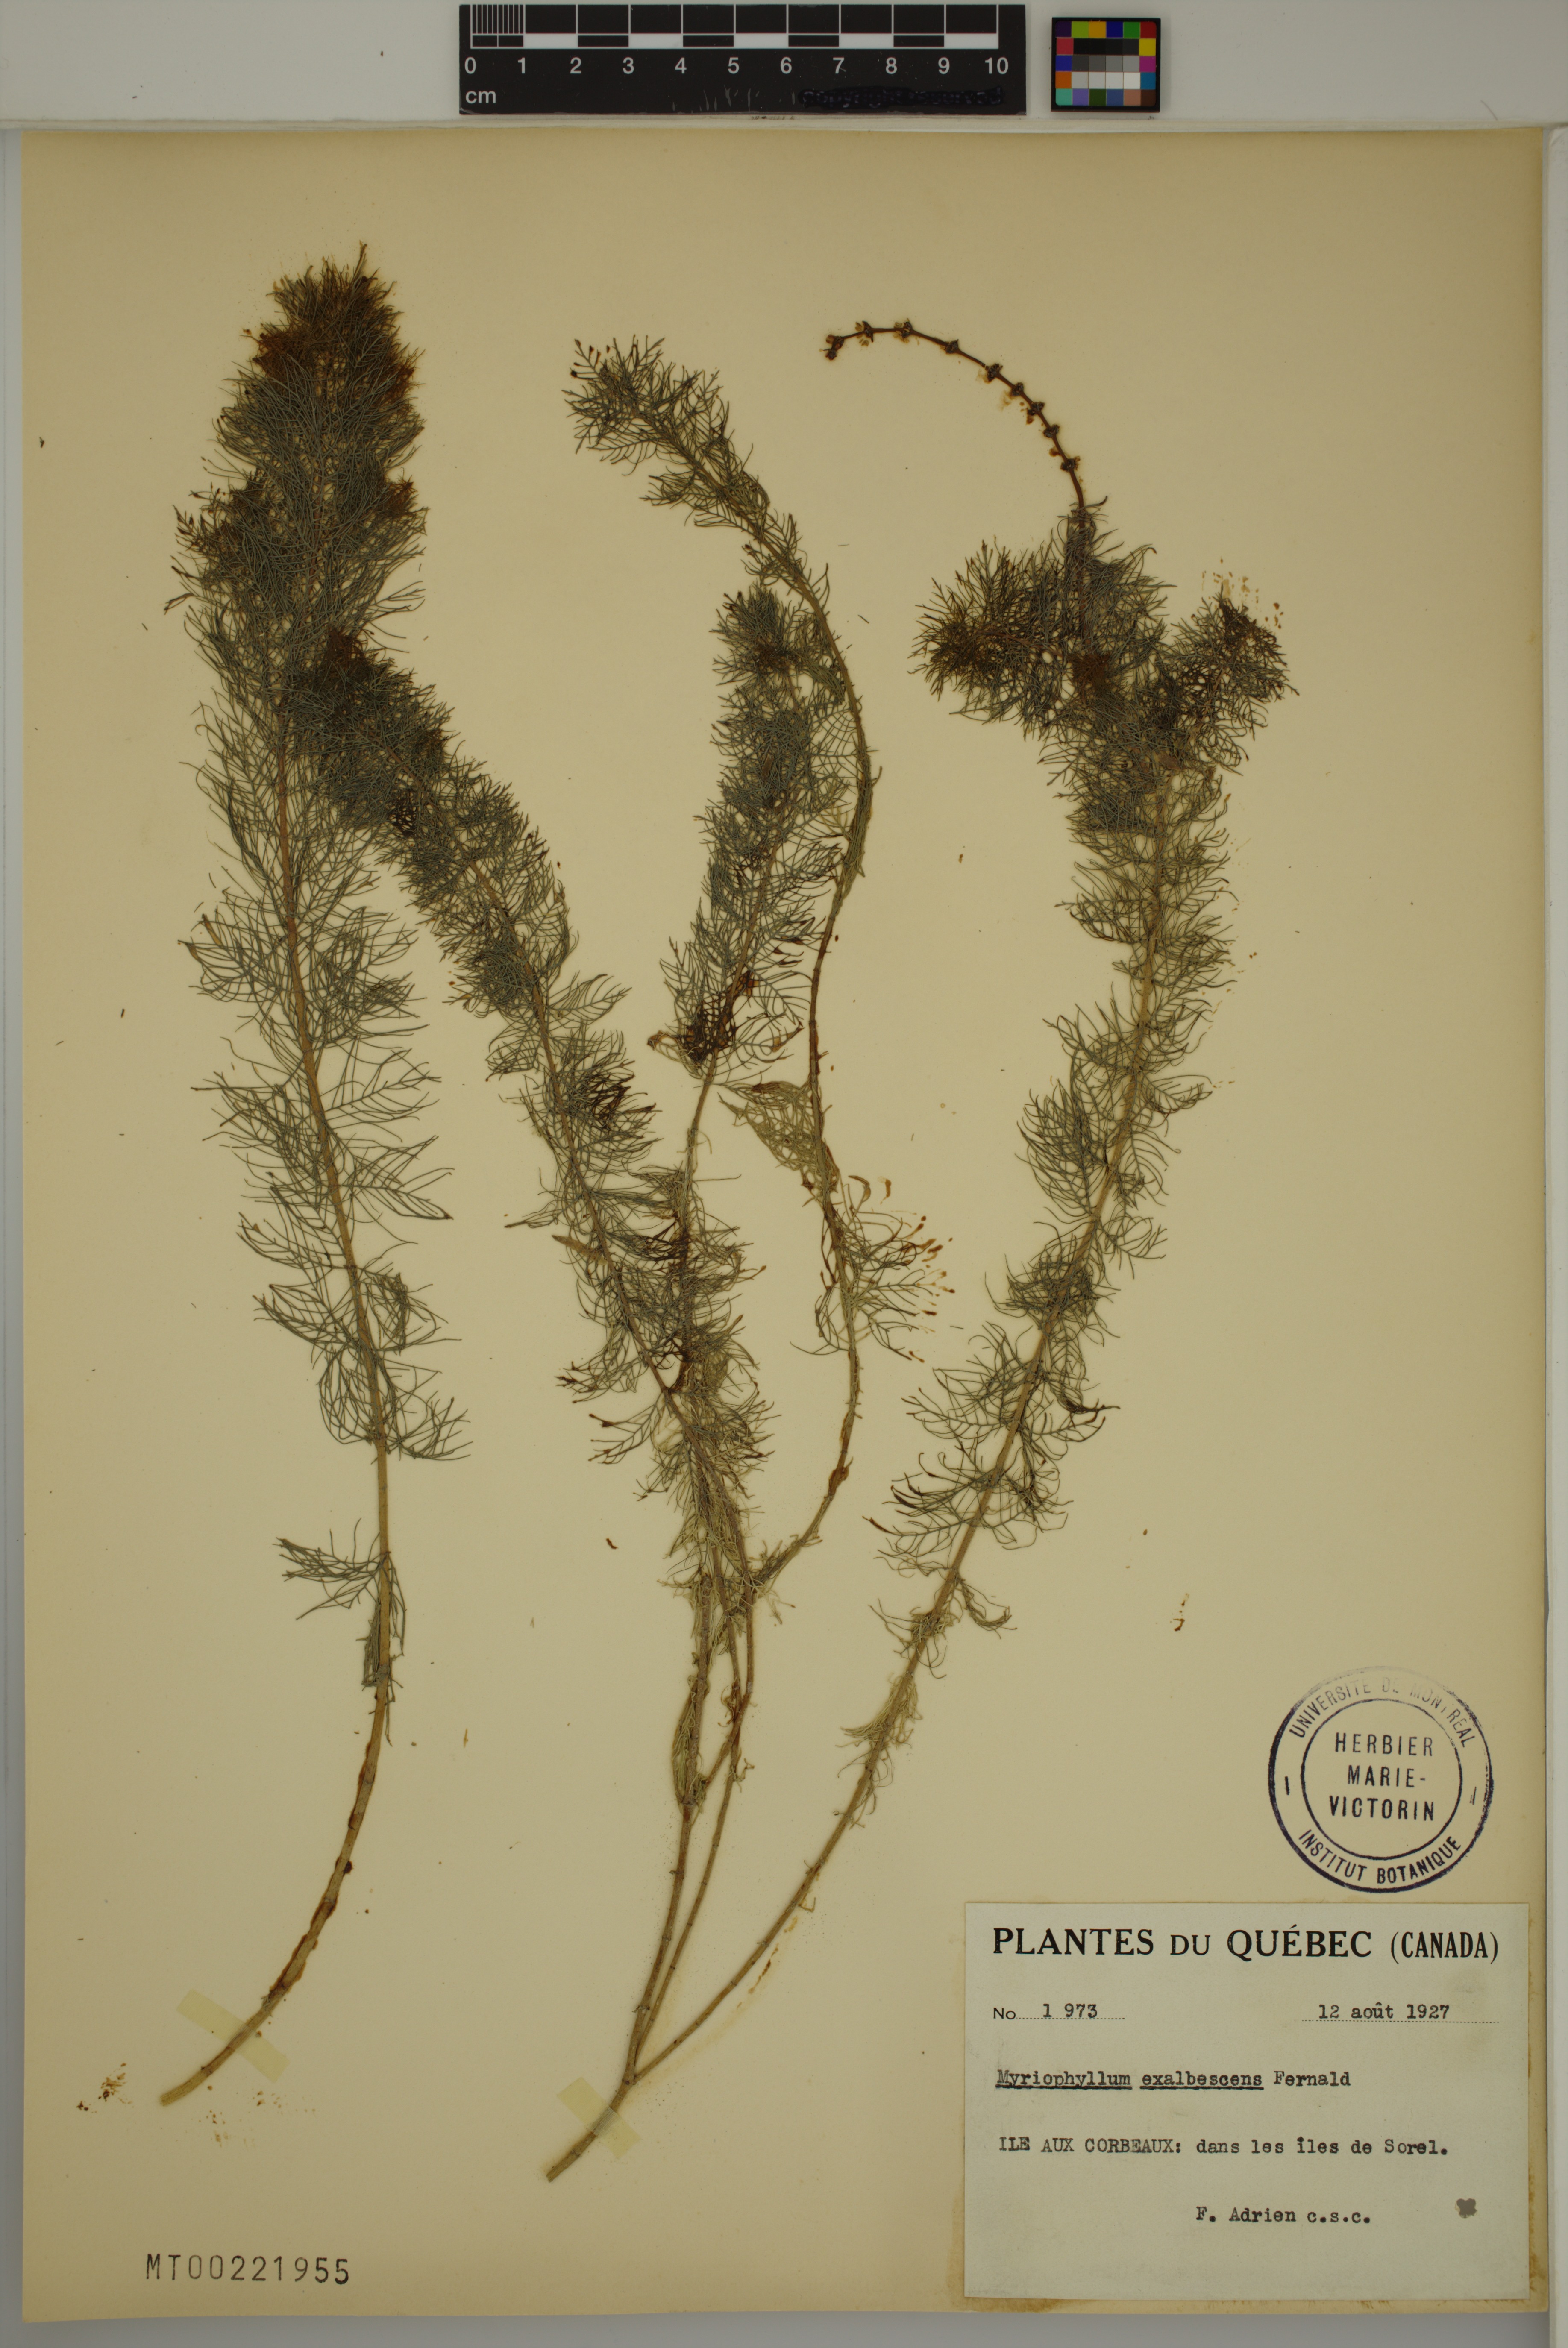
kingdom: Plantae
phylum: Tracheophyta
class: Magnoliopsida
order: Saxifragales
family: Haloragaceae
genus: Myriophyllum
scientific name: Myriophyllum sibiricum
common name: Siberian water-milfoil
